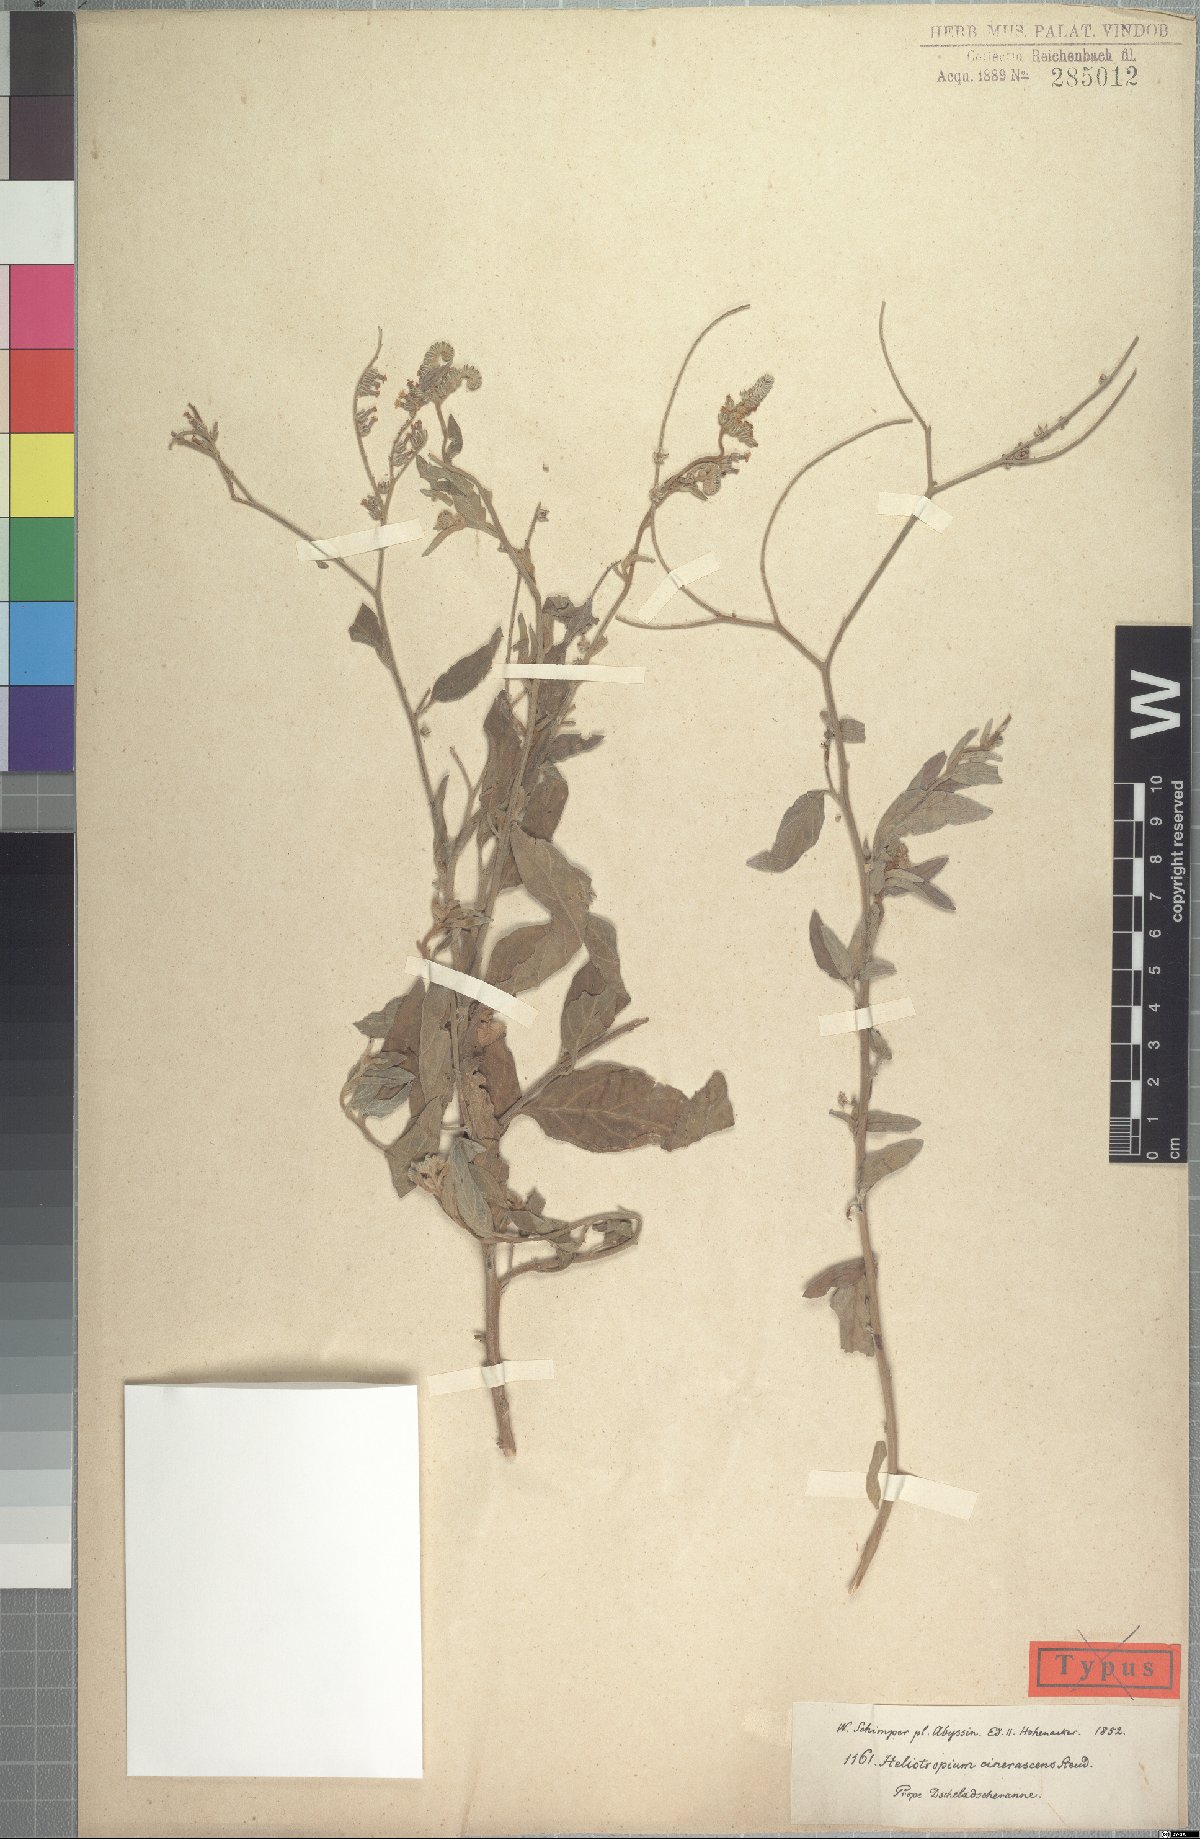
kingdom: Plantae
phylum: Tracheophyta
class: Magnoliopsida
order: Boraginales
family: Heliotropiaceae
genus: Heliotropium
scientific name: Heliotropium aegyptiacum
